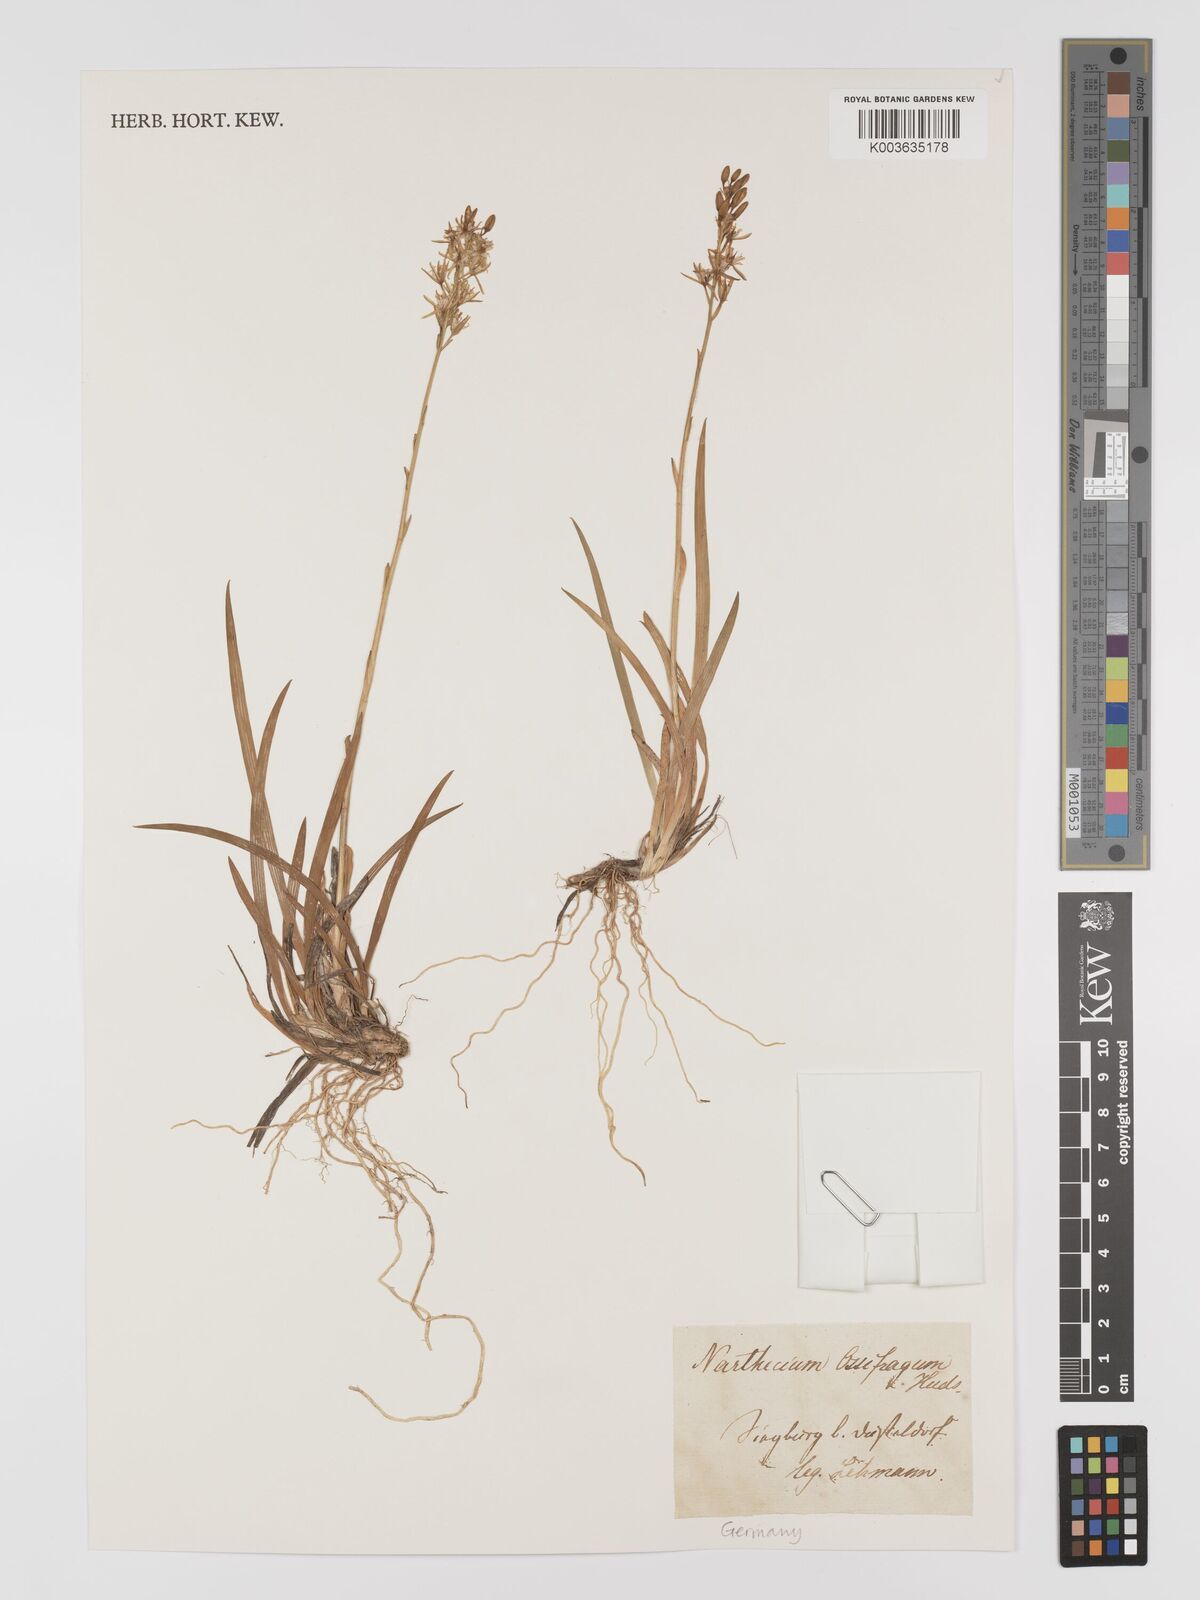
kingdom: Plantae
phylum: Tracheophyta
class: Liliopsida
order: Dioscoreales
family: Nartheciaceae
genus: Narthecium
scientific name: Narthecium ossifragum
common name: Bog asphodel
